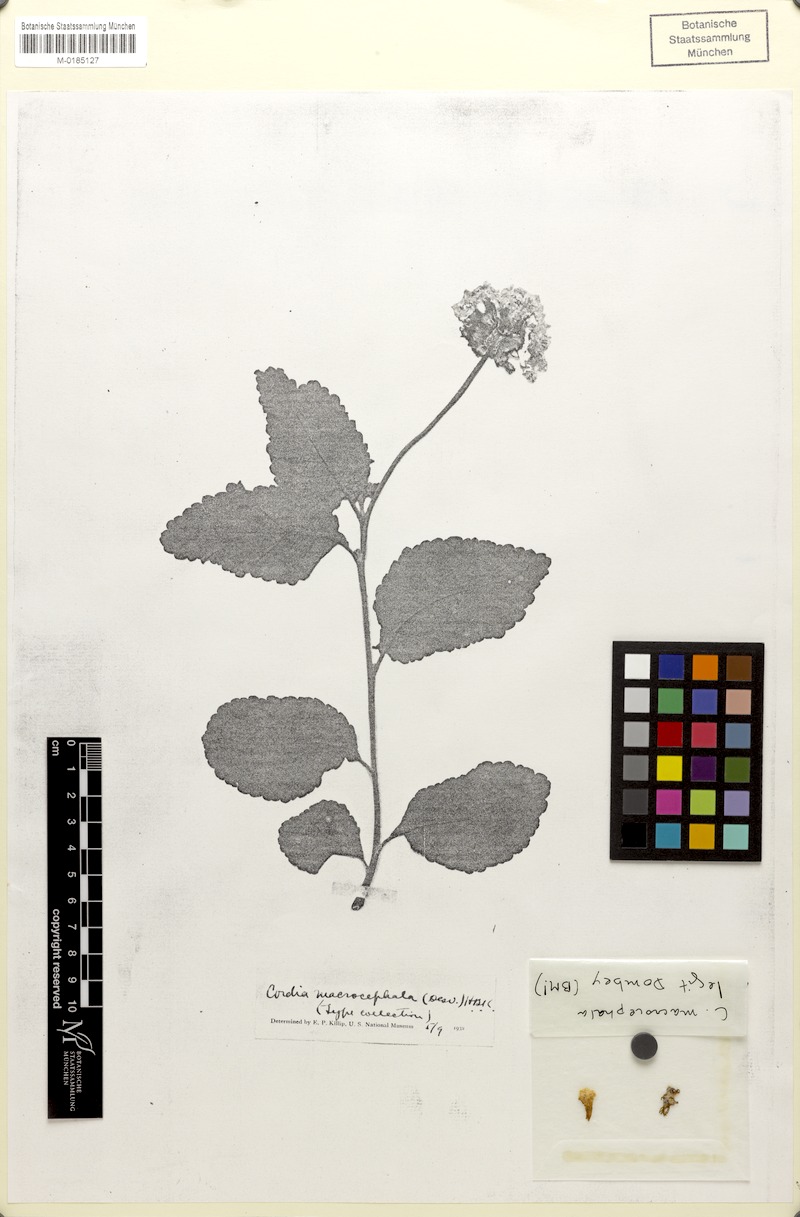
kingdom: Plantae
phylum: Tracheophyta
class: Magnoliopsida
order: Boraginales
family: Cordiaceae
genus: Varronia
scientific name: Varronia macrocephala
